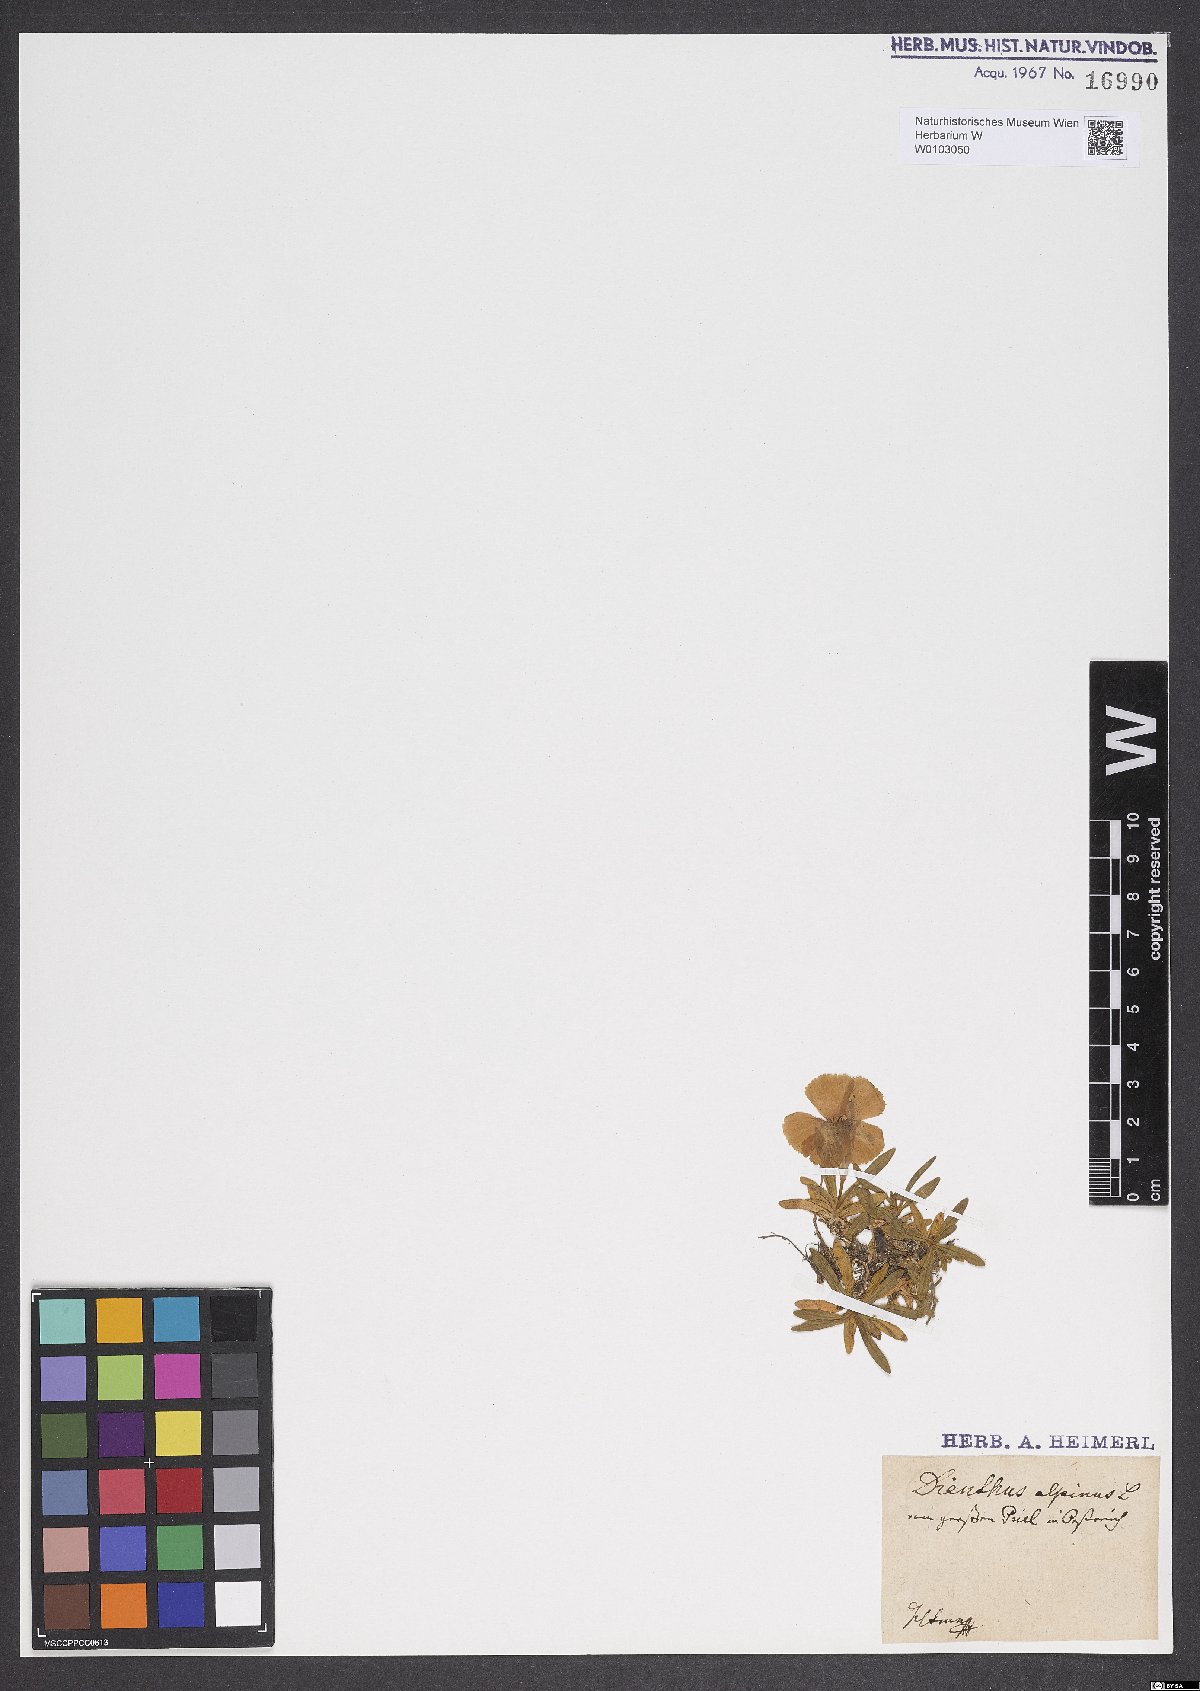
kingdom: Plantae
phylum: Tracheophyta
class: Magnoliopsida
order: Caryophyllales
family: Caryophyllaceae
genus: Dianthus
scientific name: Dianthus alpinus
